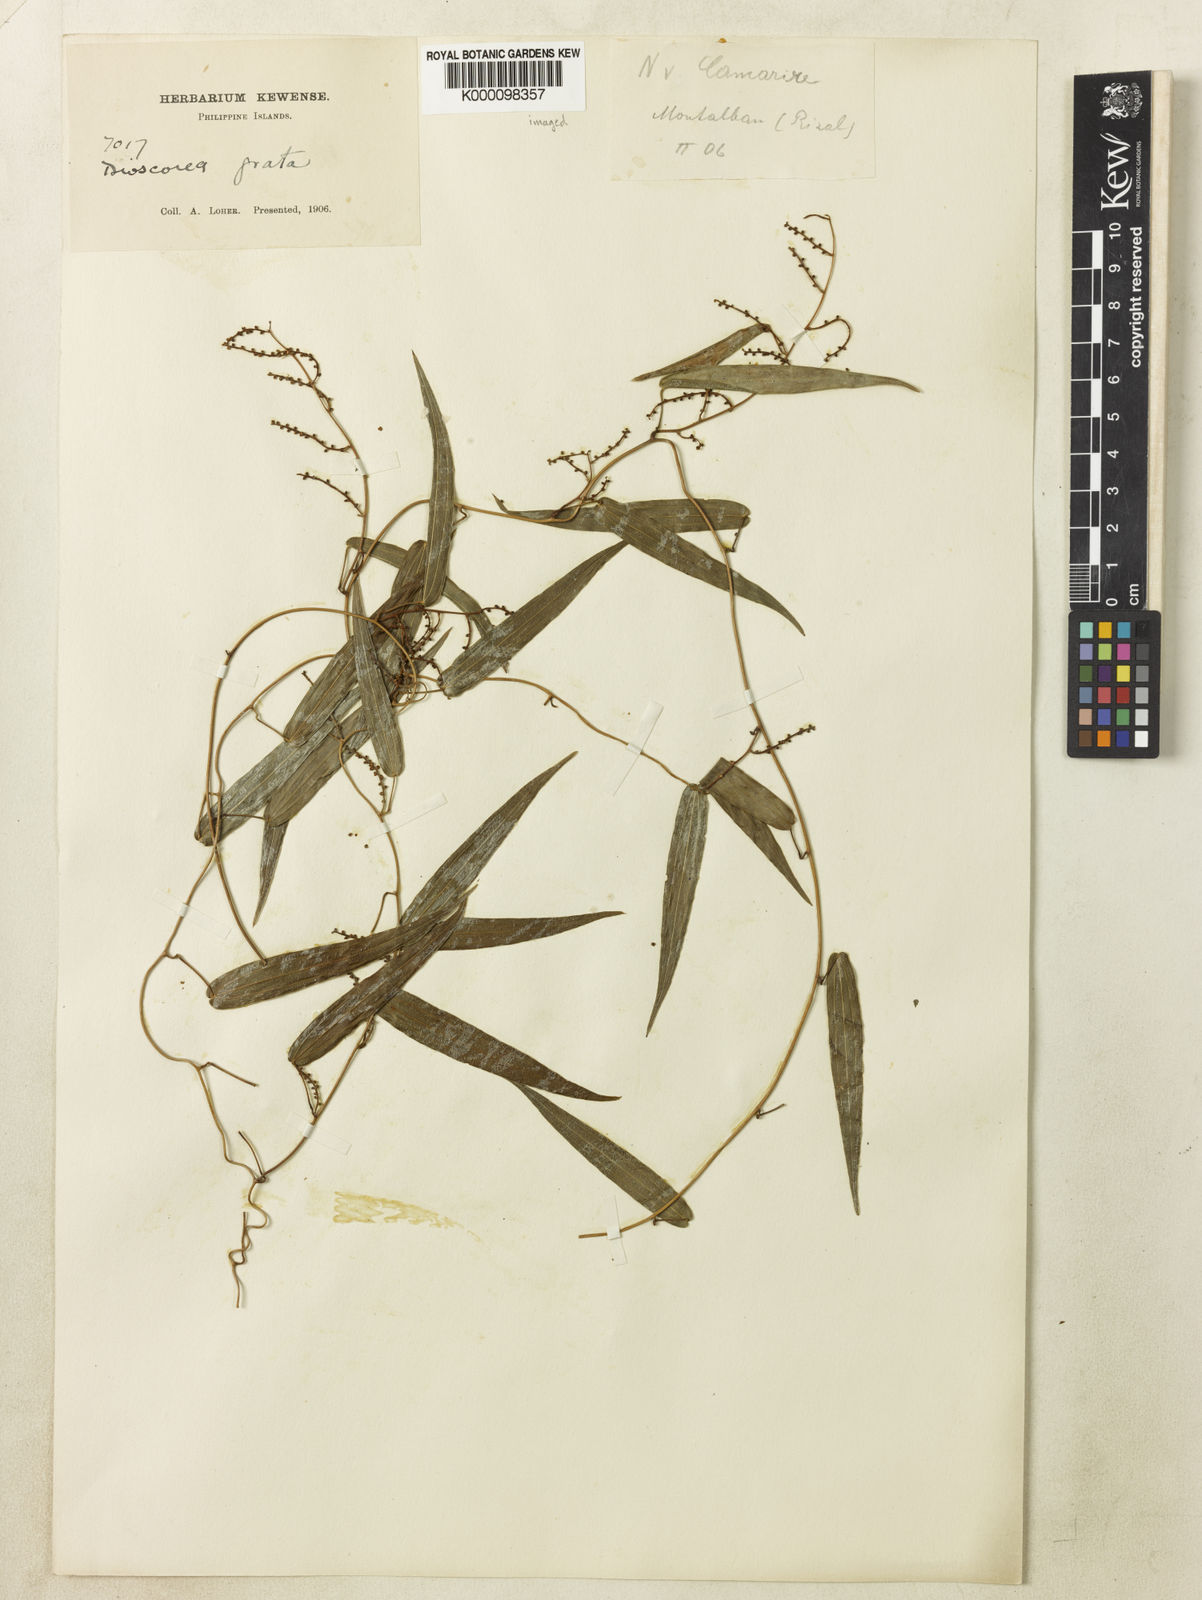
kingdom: Plantae
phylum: Tracheophyta
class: Liliopsida
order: Dioscoreales
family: Dioscoreaceae
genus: Dioscorea
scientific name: Dioscorea grata
